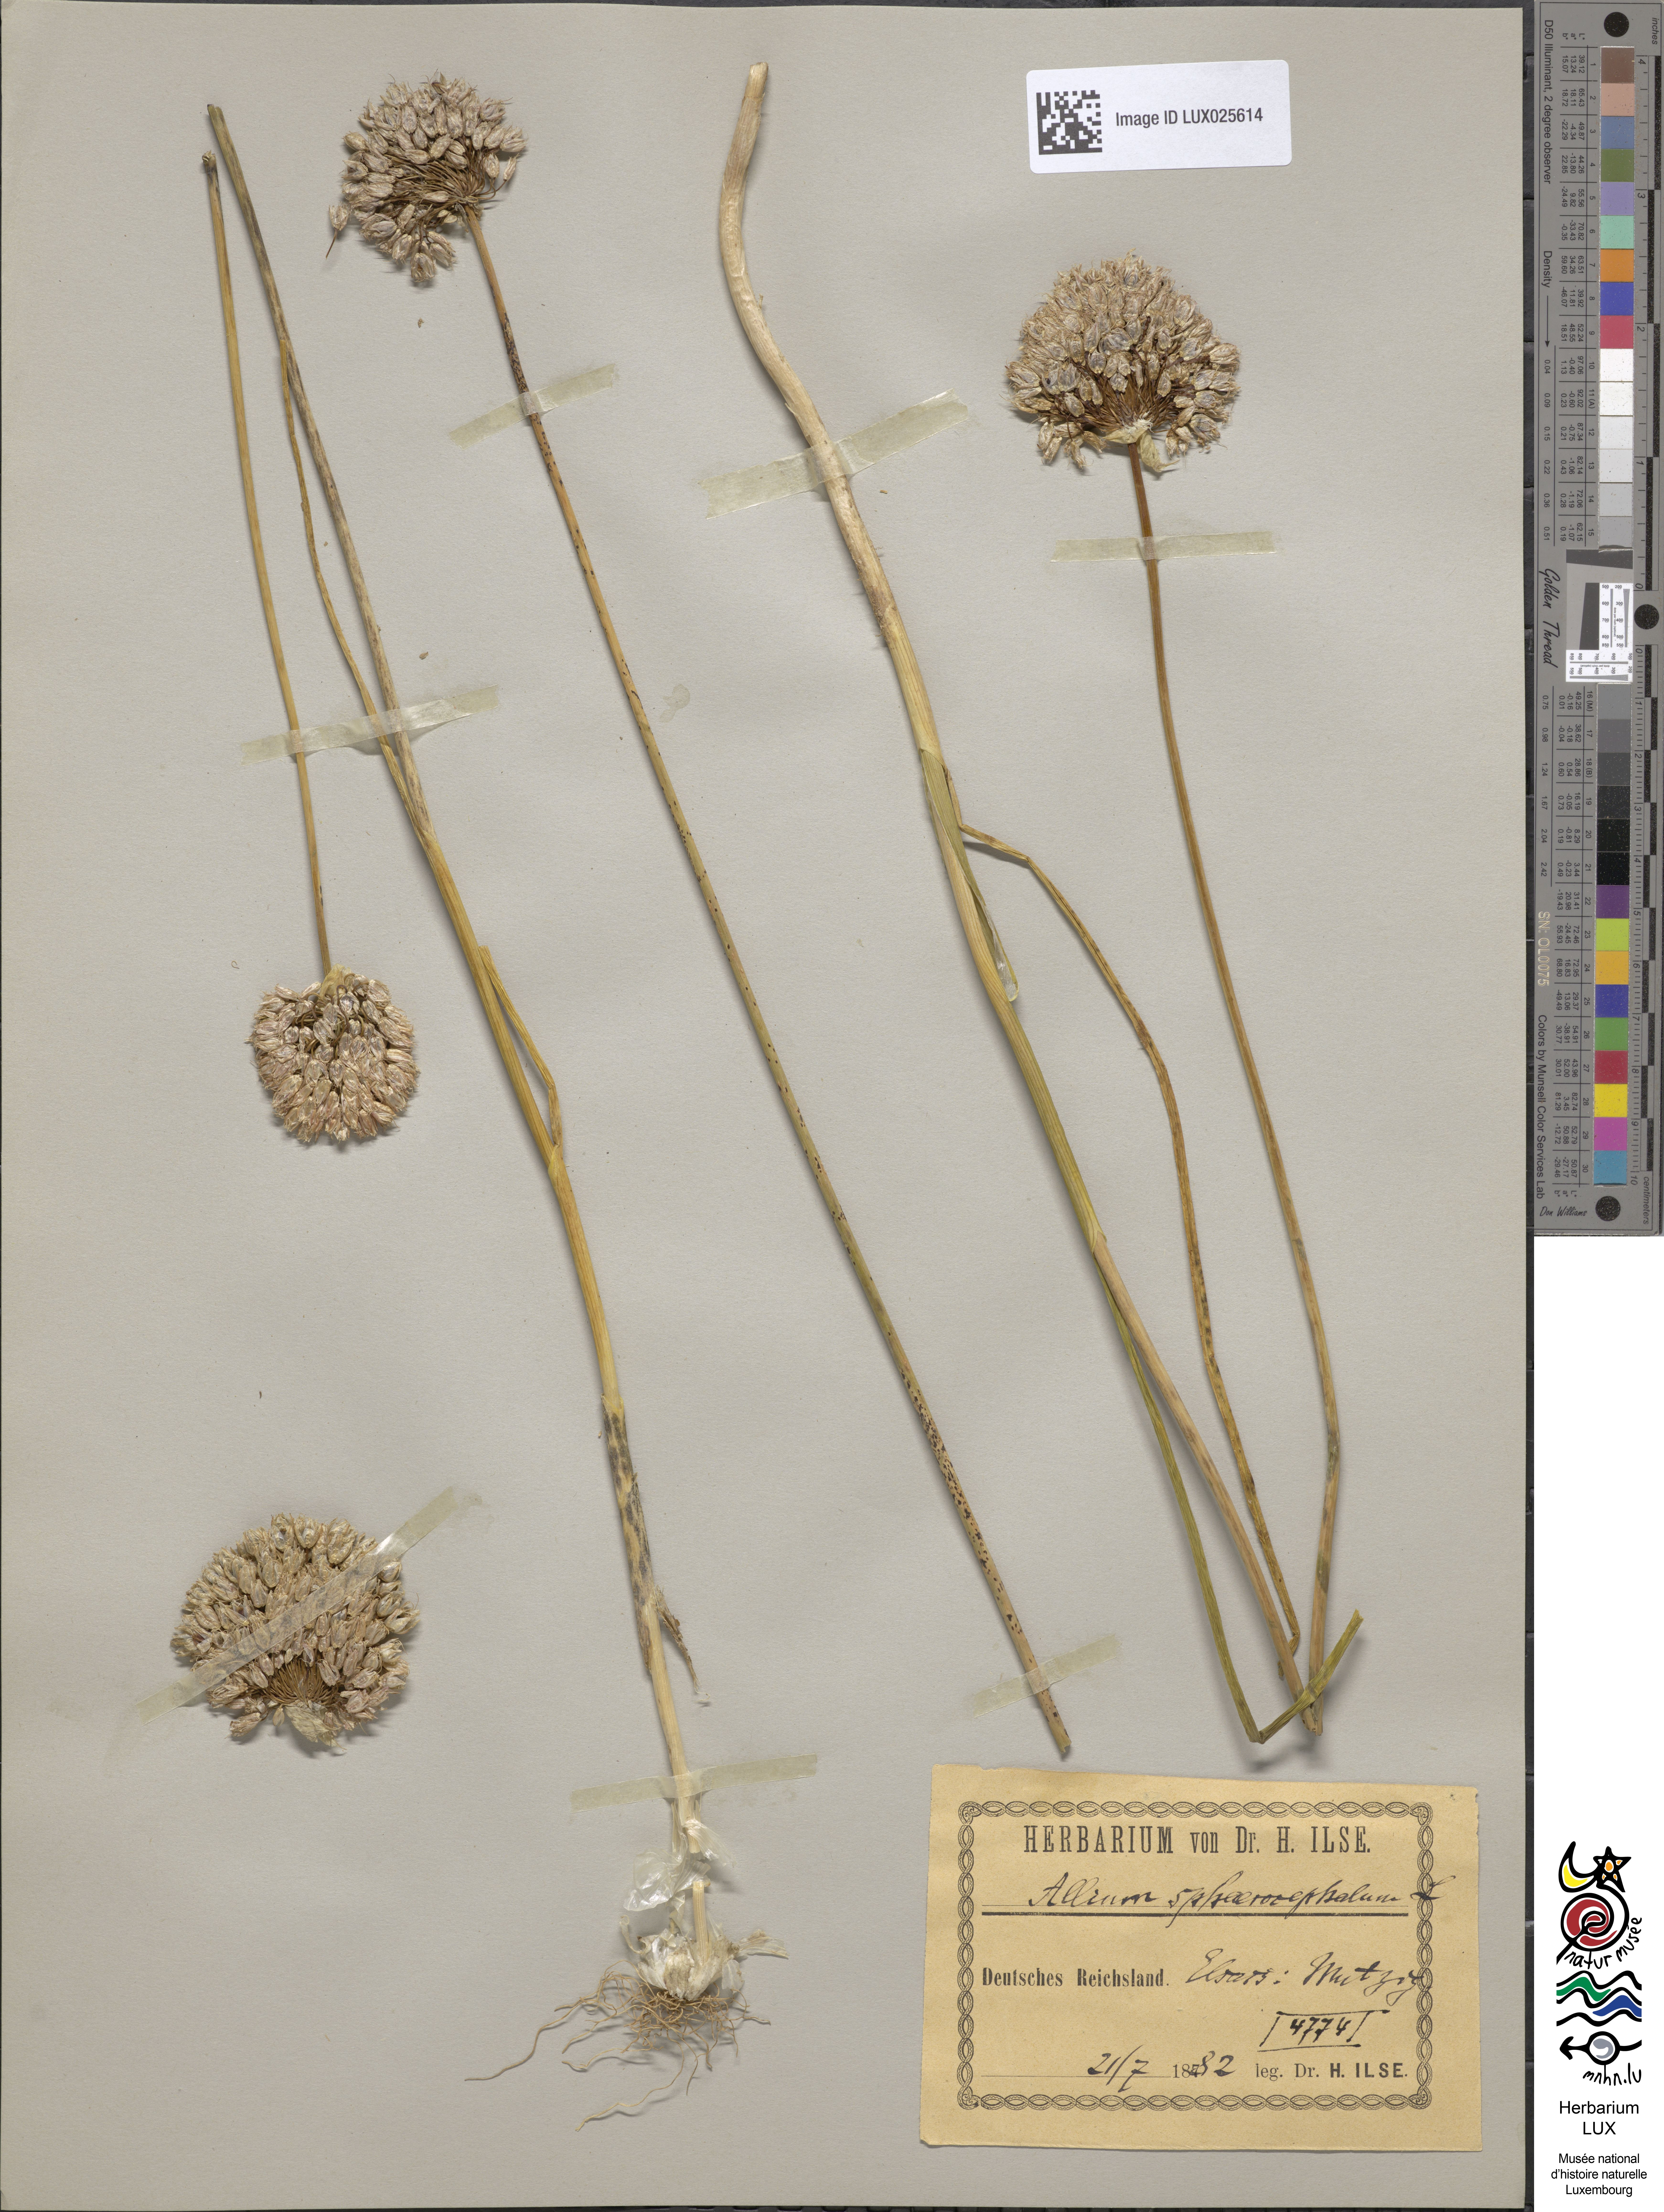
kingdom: Plantae
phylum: Tracheophyta
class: Liliopsida
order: Asparagales
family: Amaryllidaceae
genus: Allium
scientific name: Allium sphaerocephalon
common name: Round-headed leek
